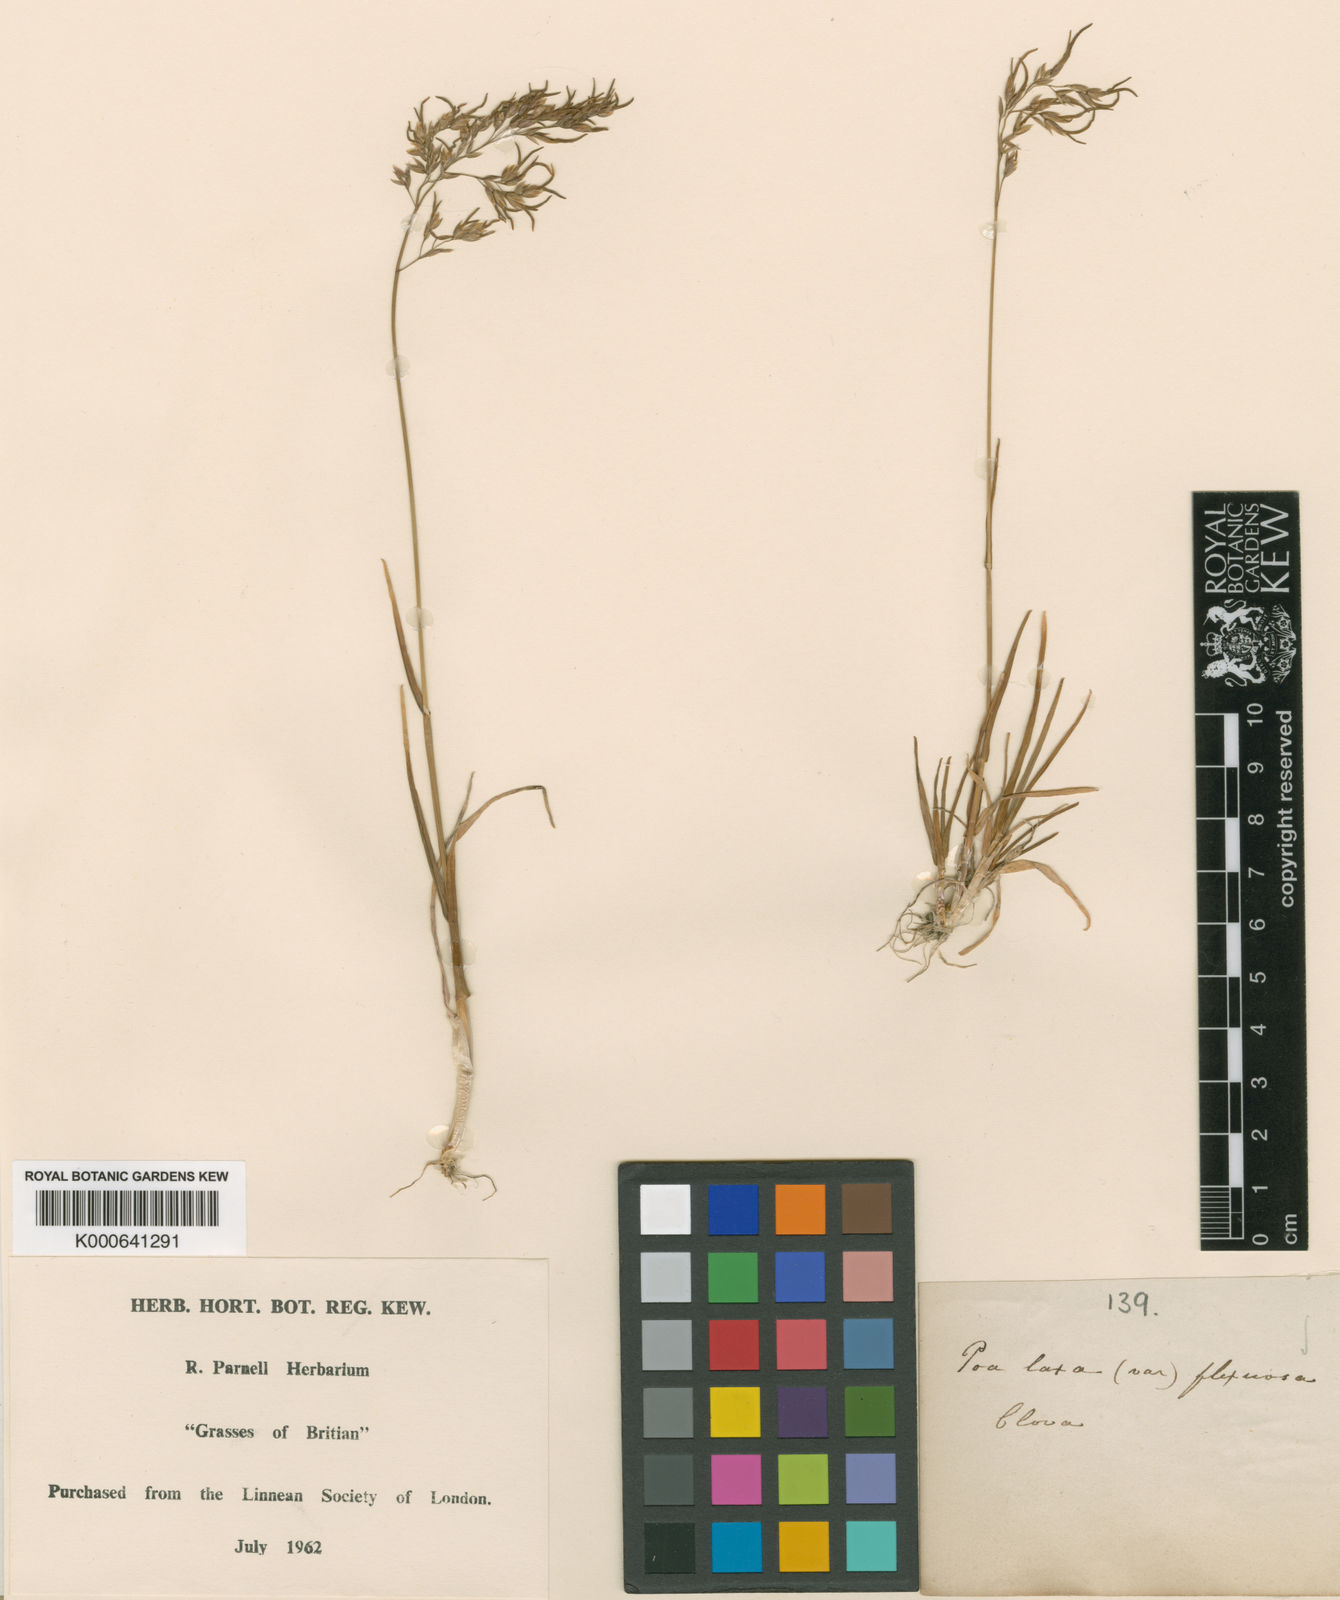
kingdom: Plantae
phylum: Tracheophyta
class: Liliopsida
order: Poales
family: Poaceae
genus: Poa
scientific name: Poa jemtlandica
